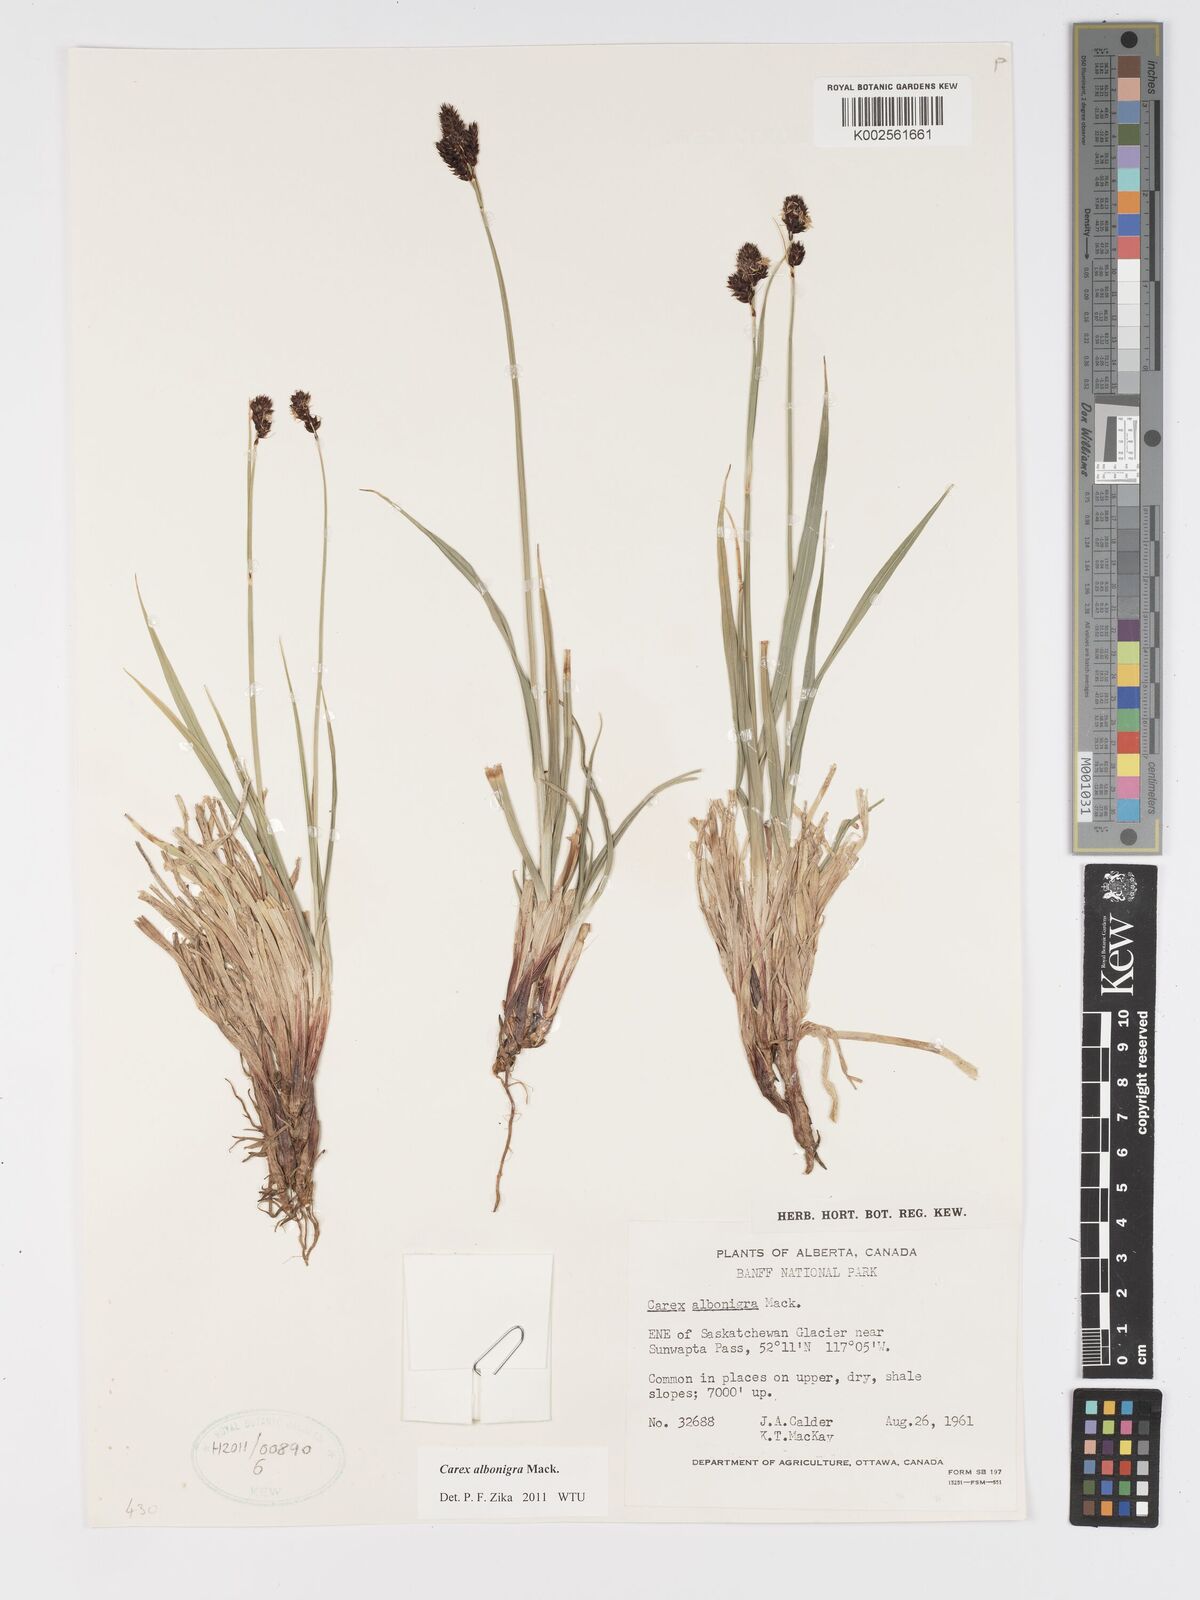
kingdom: Plantae
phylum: Tracheophyta
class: Liliopsida
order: Poales
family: Cyperaceae
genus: Carex
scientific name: Carex albonigra
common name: Black-and-white sedge
